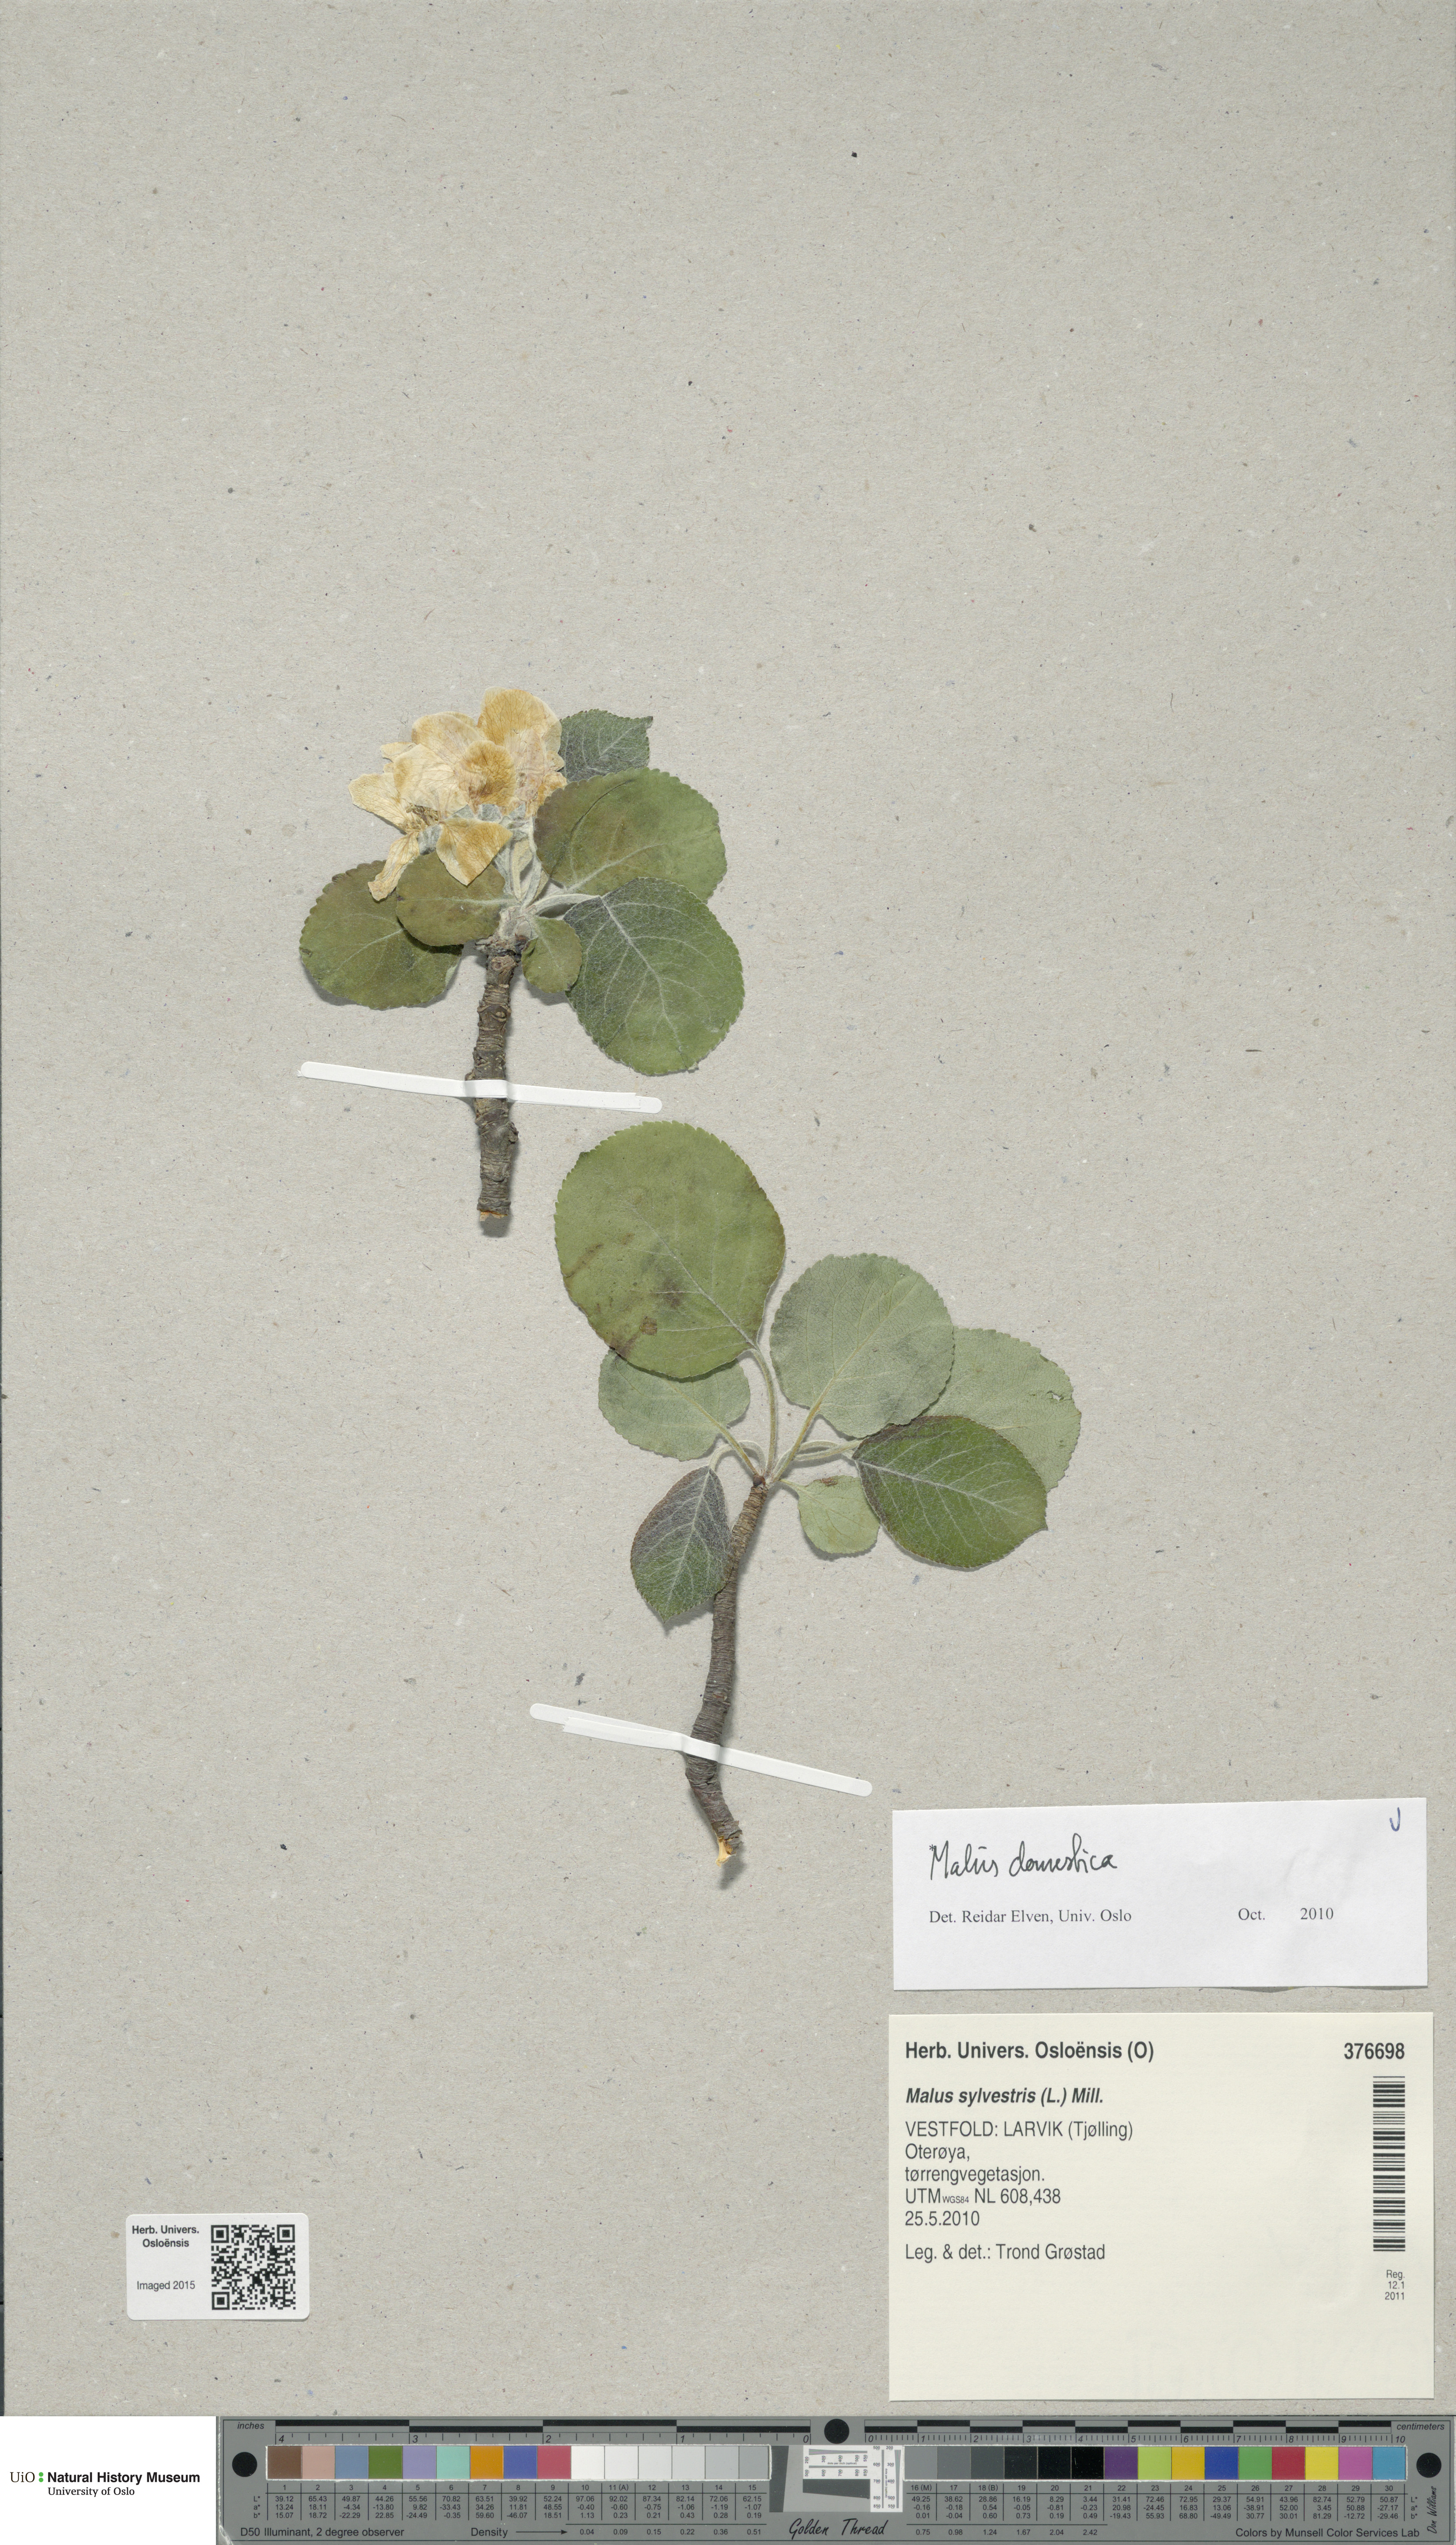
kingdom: Plantae
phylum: Tracheophyta
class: Magnoliopsida
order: Rosales
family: Rosaceae
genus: Malus
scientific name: Malus domestica
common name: Apple
